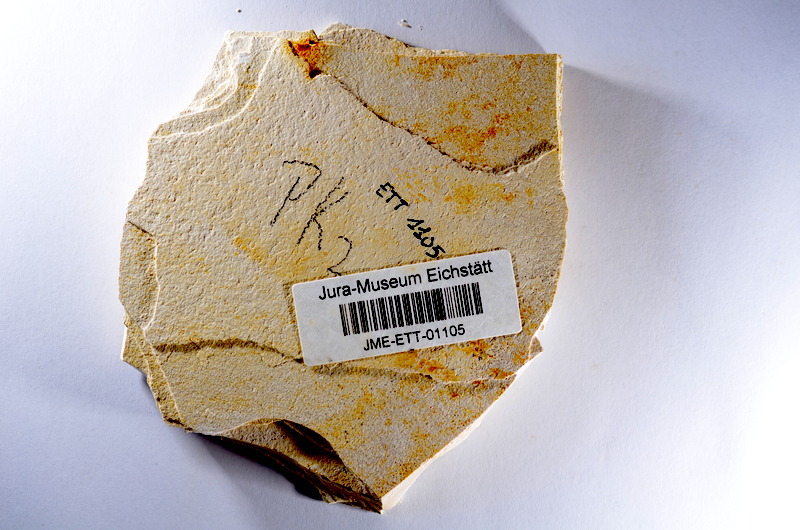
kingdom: Animalia
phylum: Chordata
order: Salmoniformes
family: Orthogonikleithridae
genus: Orthogonikleithrus
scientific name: Orthogonikleithrus hoelli
